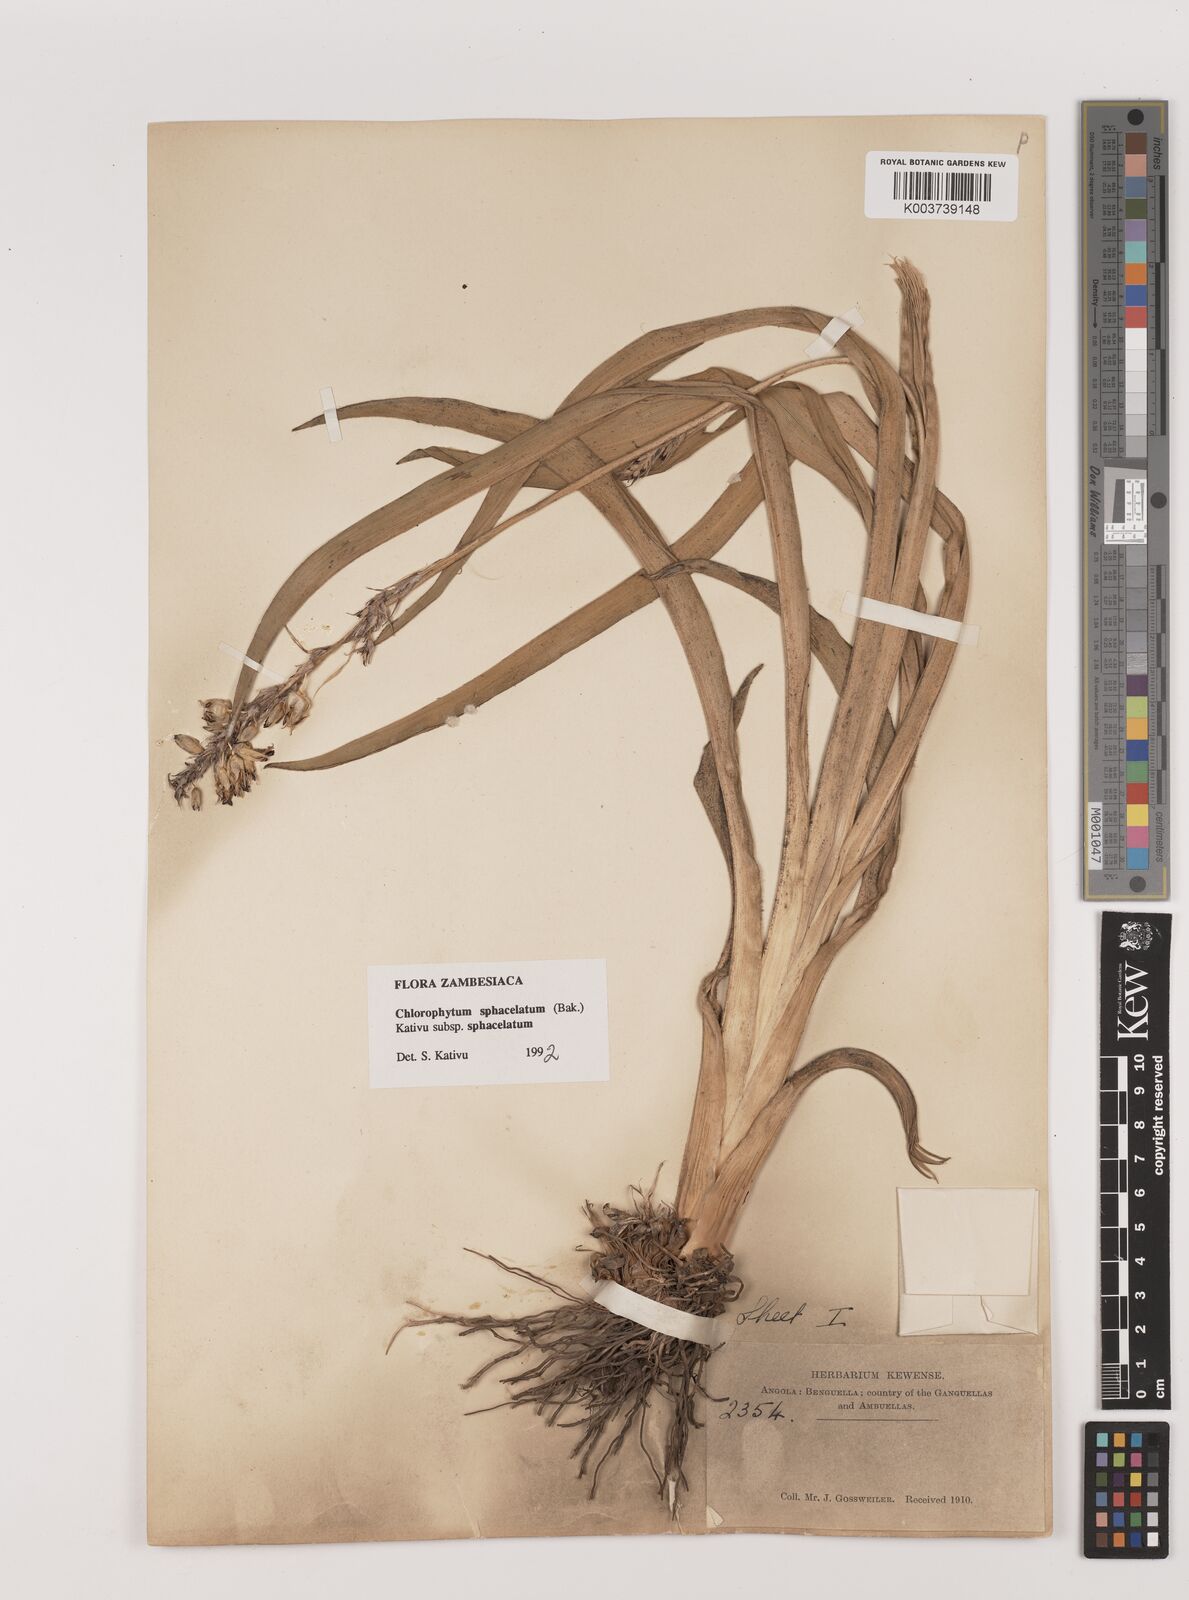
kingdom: Plantae
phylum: Tracheophyta
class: Liliopsida
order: Asparagales
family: Asparagaceae
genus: Chlorophytum
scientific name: Chlorophytum sphacelatum
